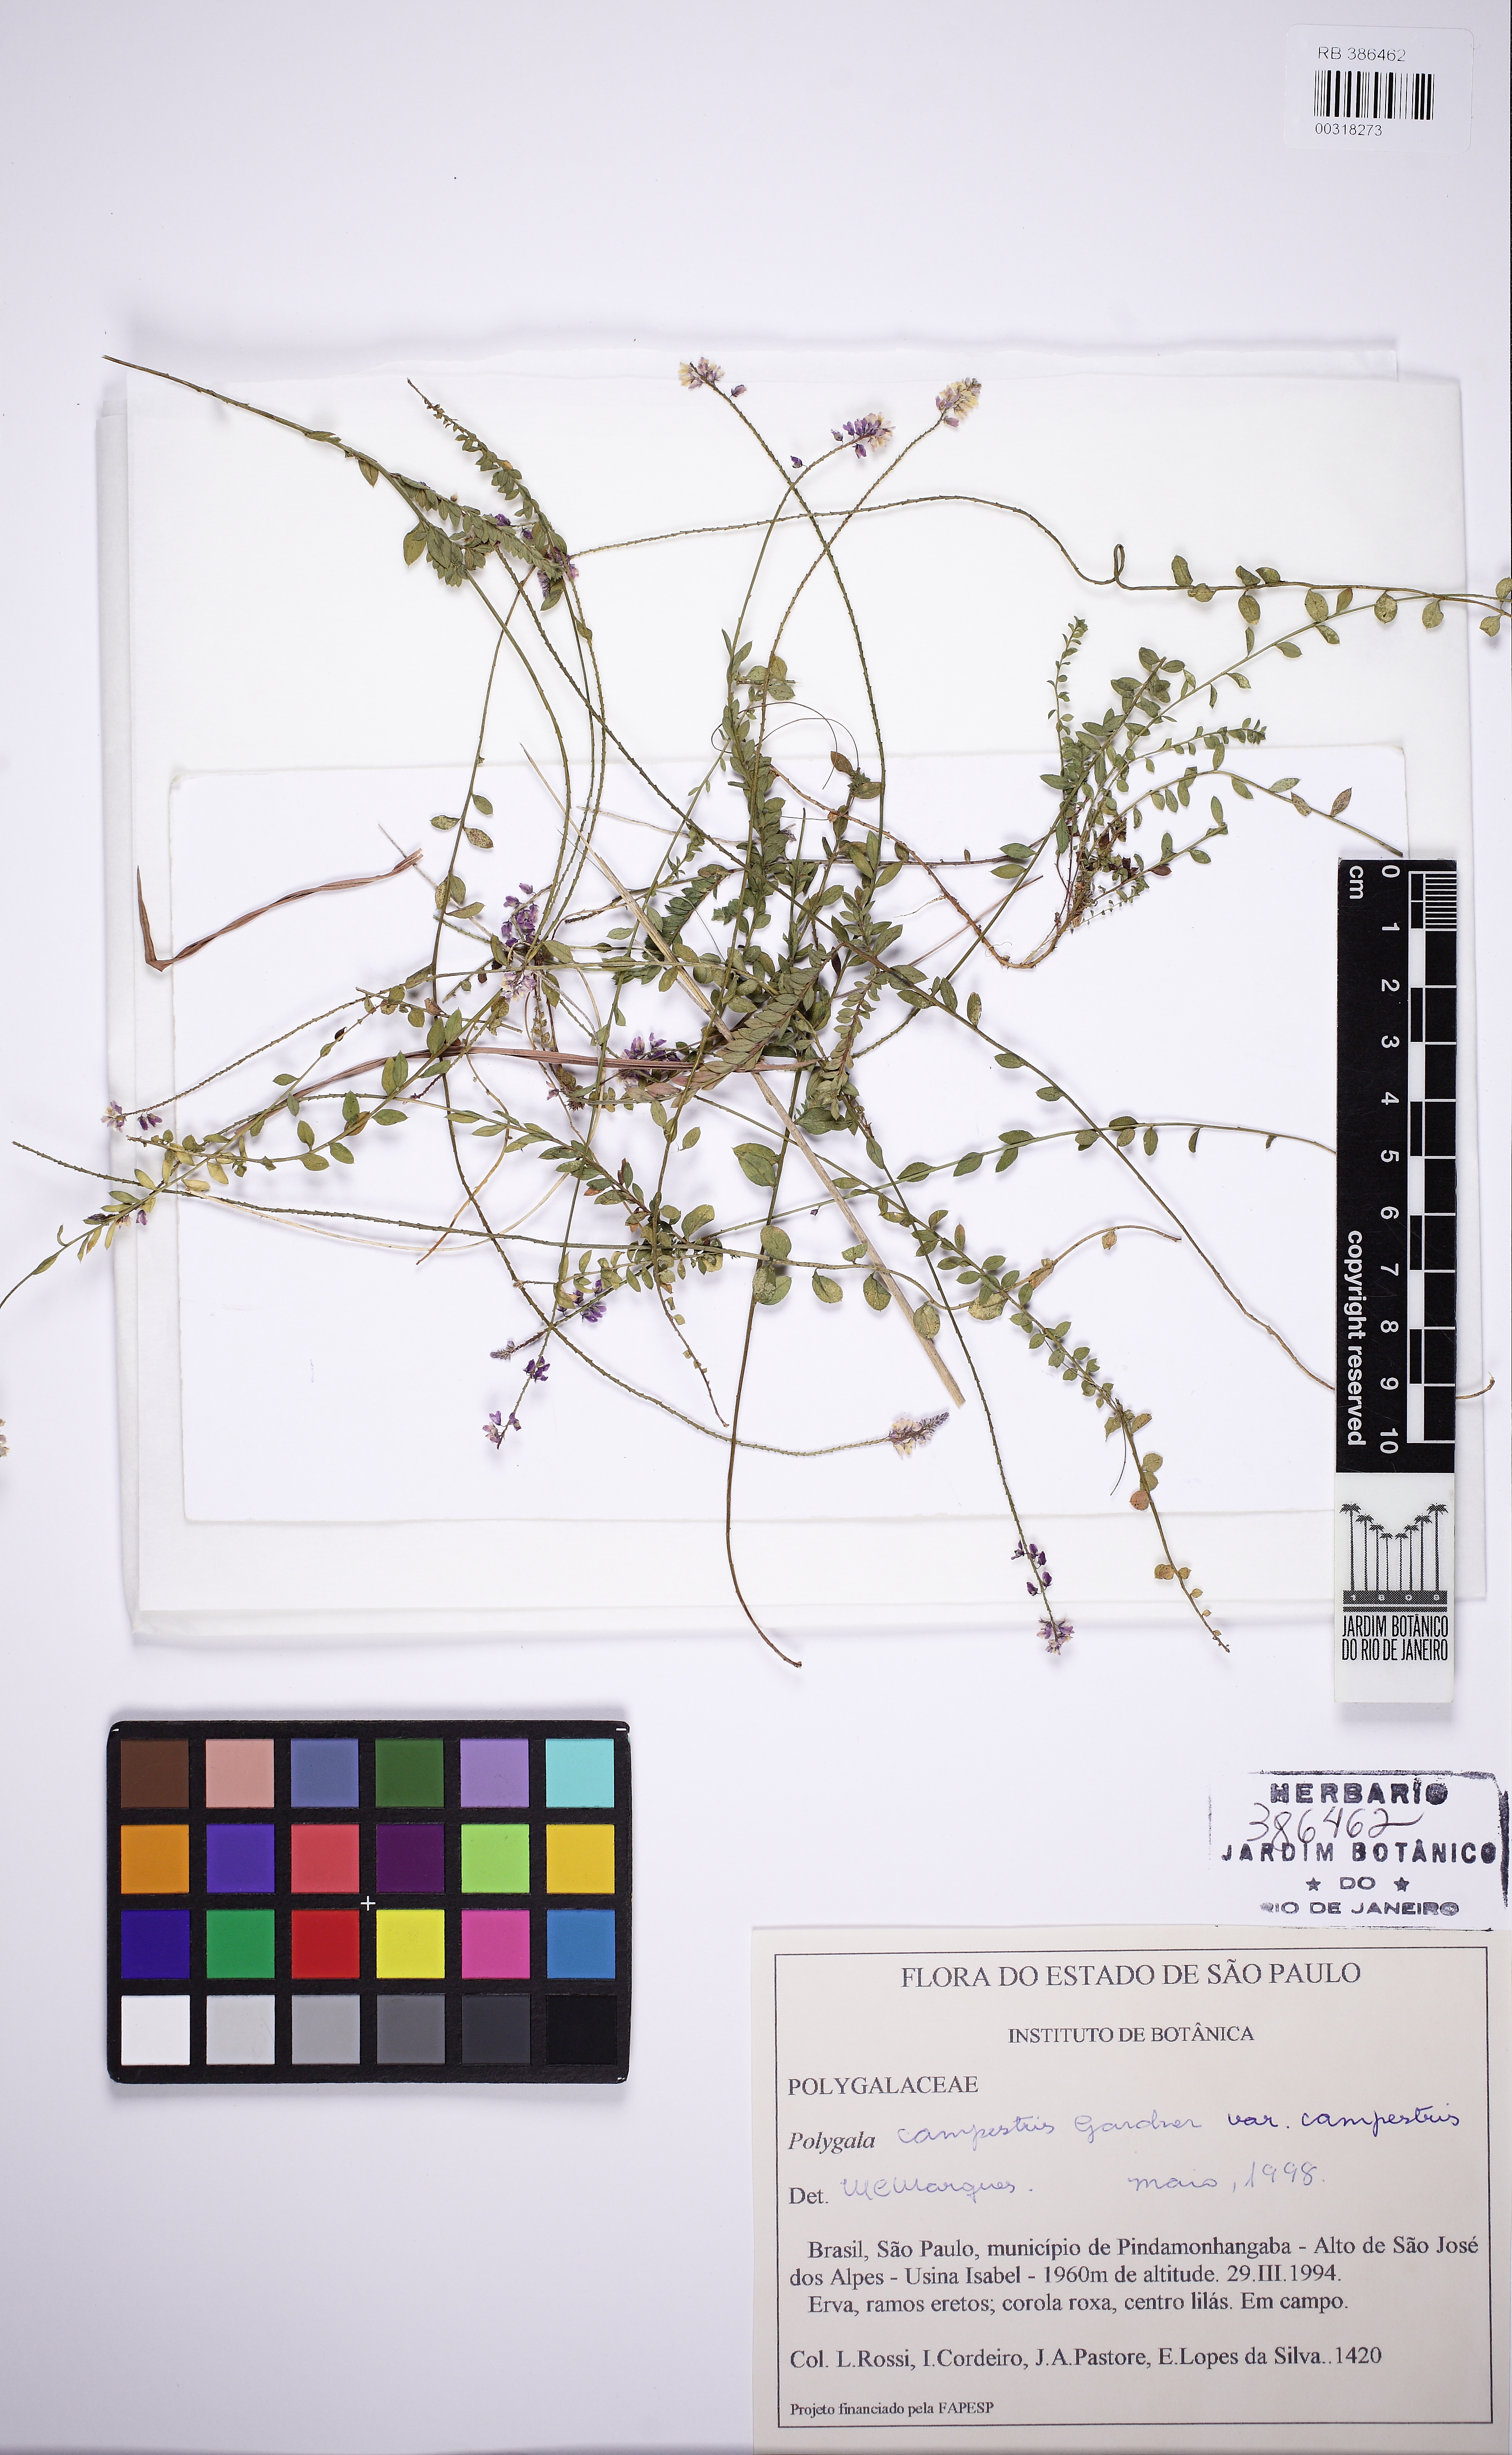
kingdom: Plantae
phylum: Tracheophyta
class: Magnoliopsida
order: Fabales
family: Polygalaceae
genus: Polygala
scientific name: Polygala campestris
